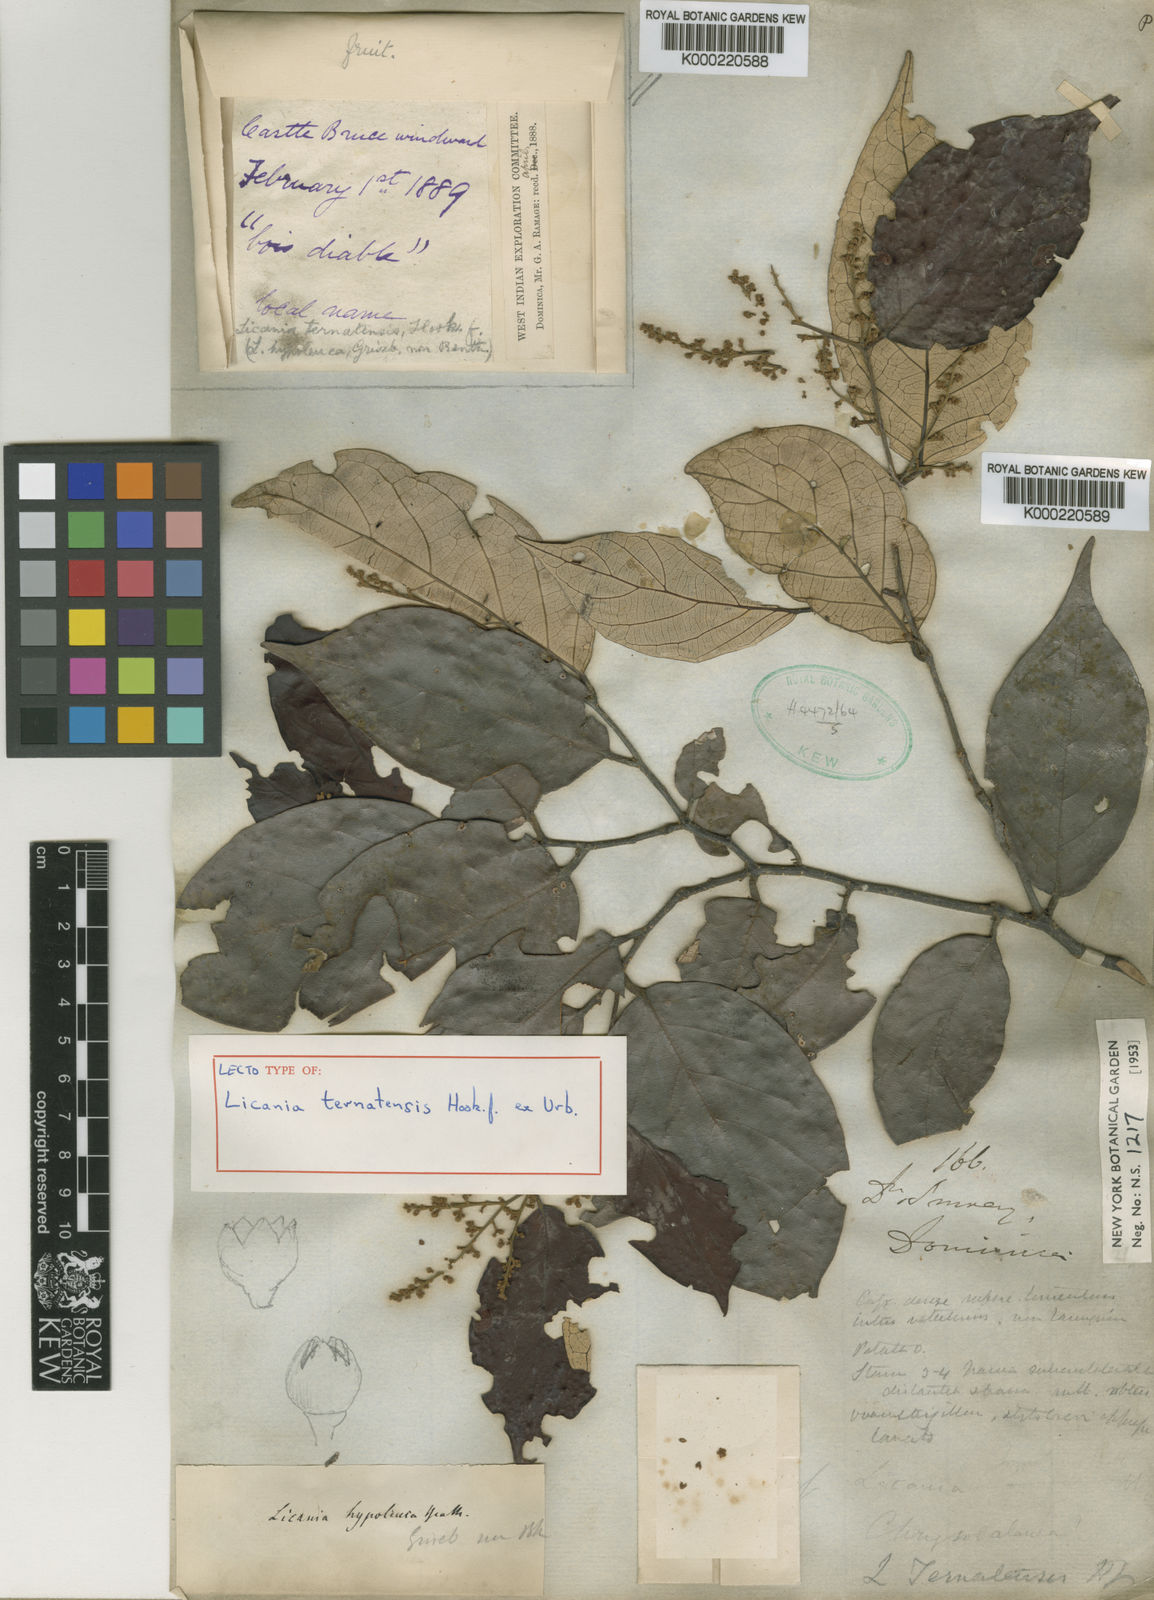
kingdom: Plantae
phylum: Tracheophyta
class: Magnoliopsida
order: Malpighiales
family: Chrysobalanaceae
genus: Licania
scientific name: Licania ternatensis
